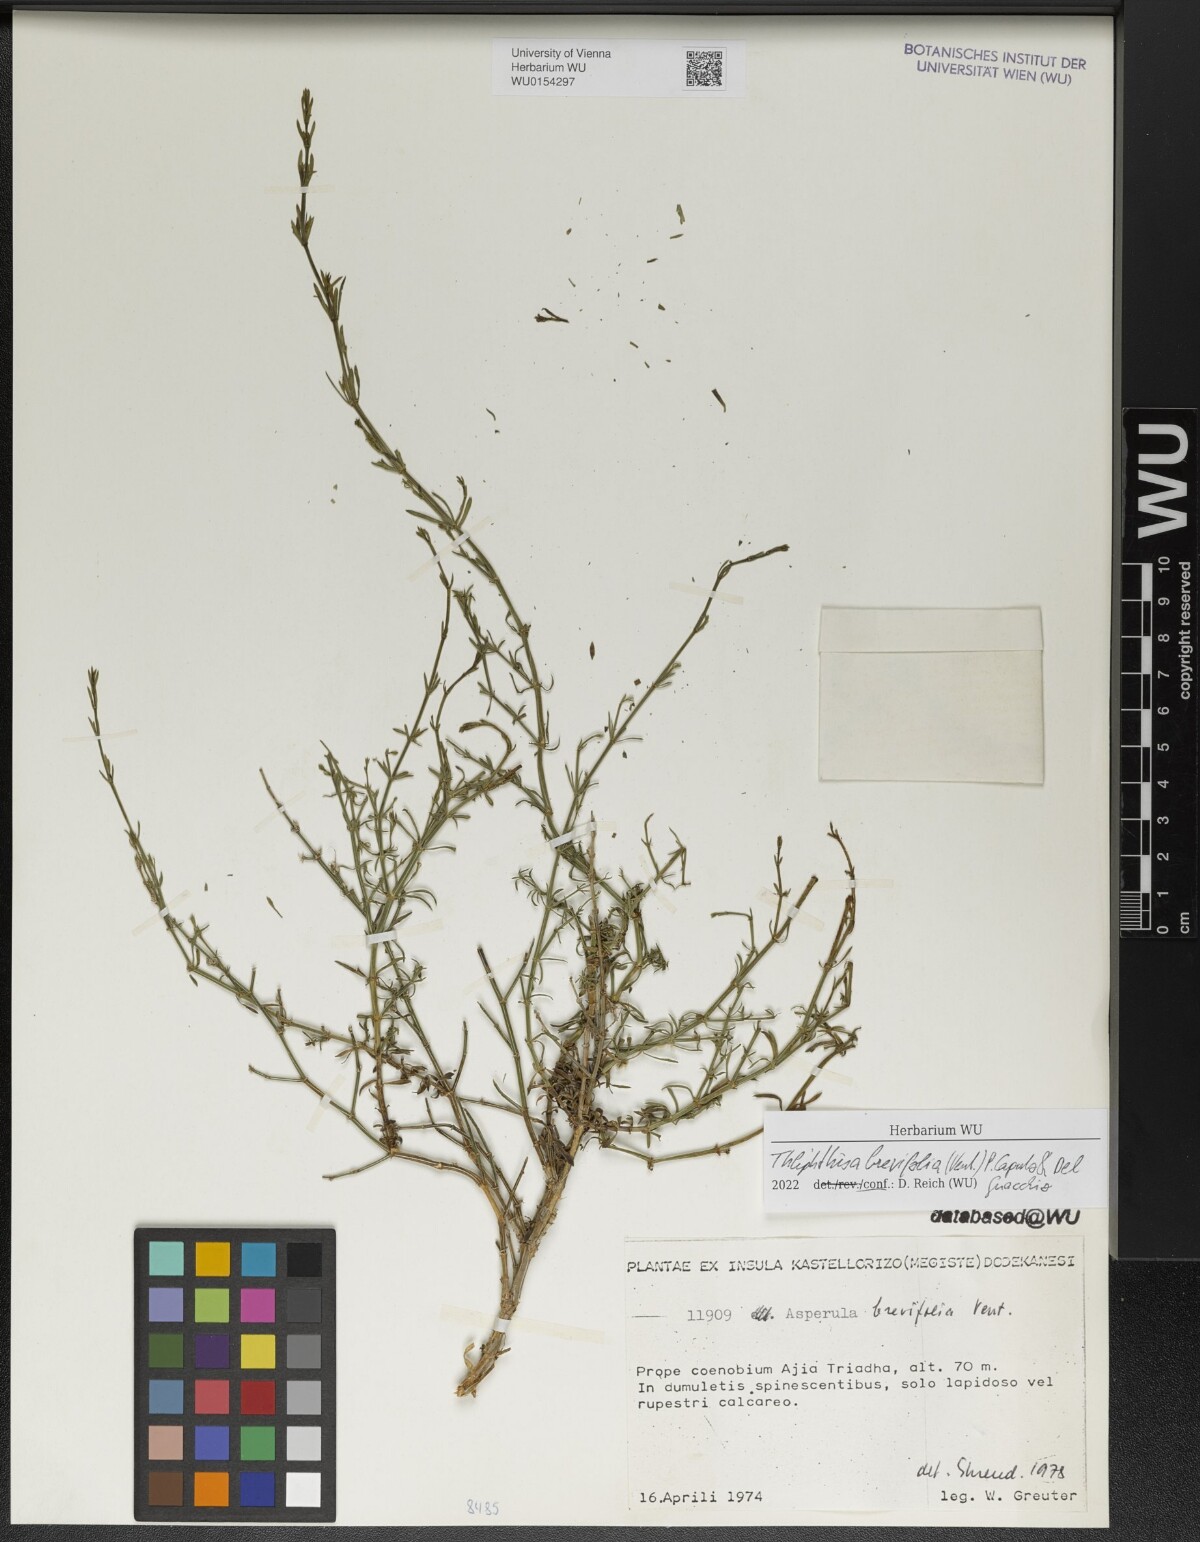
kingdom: Plantae
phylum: Tracheophyta
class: Magnoliopsida
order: Gentianales
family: Rubiaceae
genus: Thliphthisa
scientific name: Thliphthisa brevifolia
